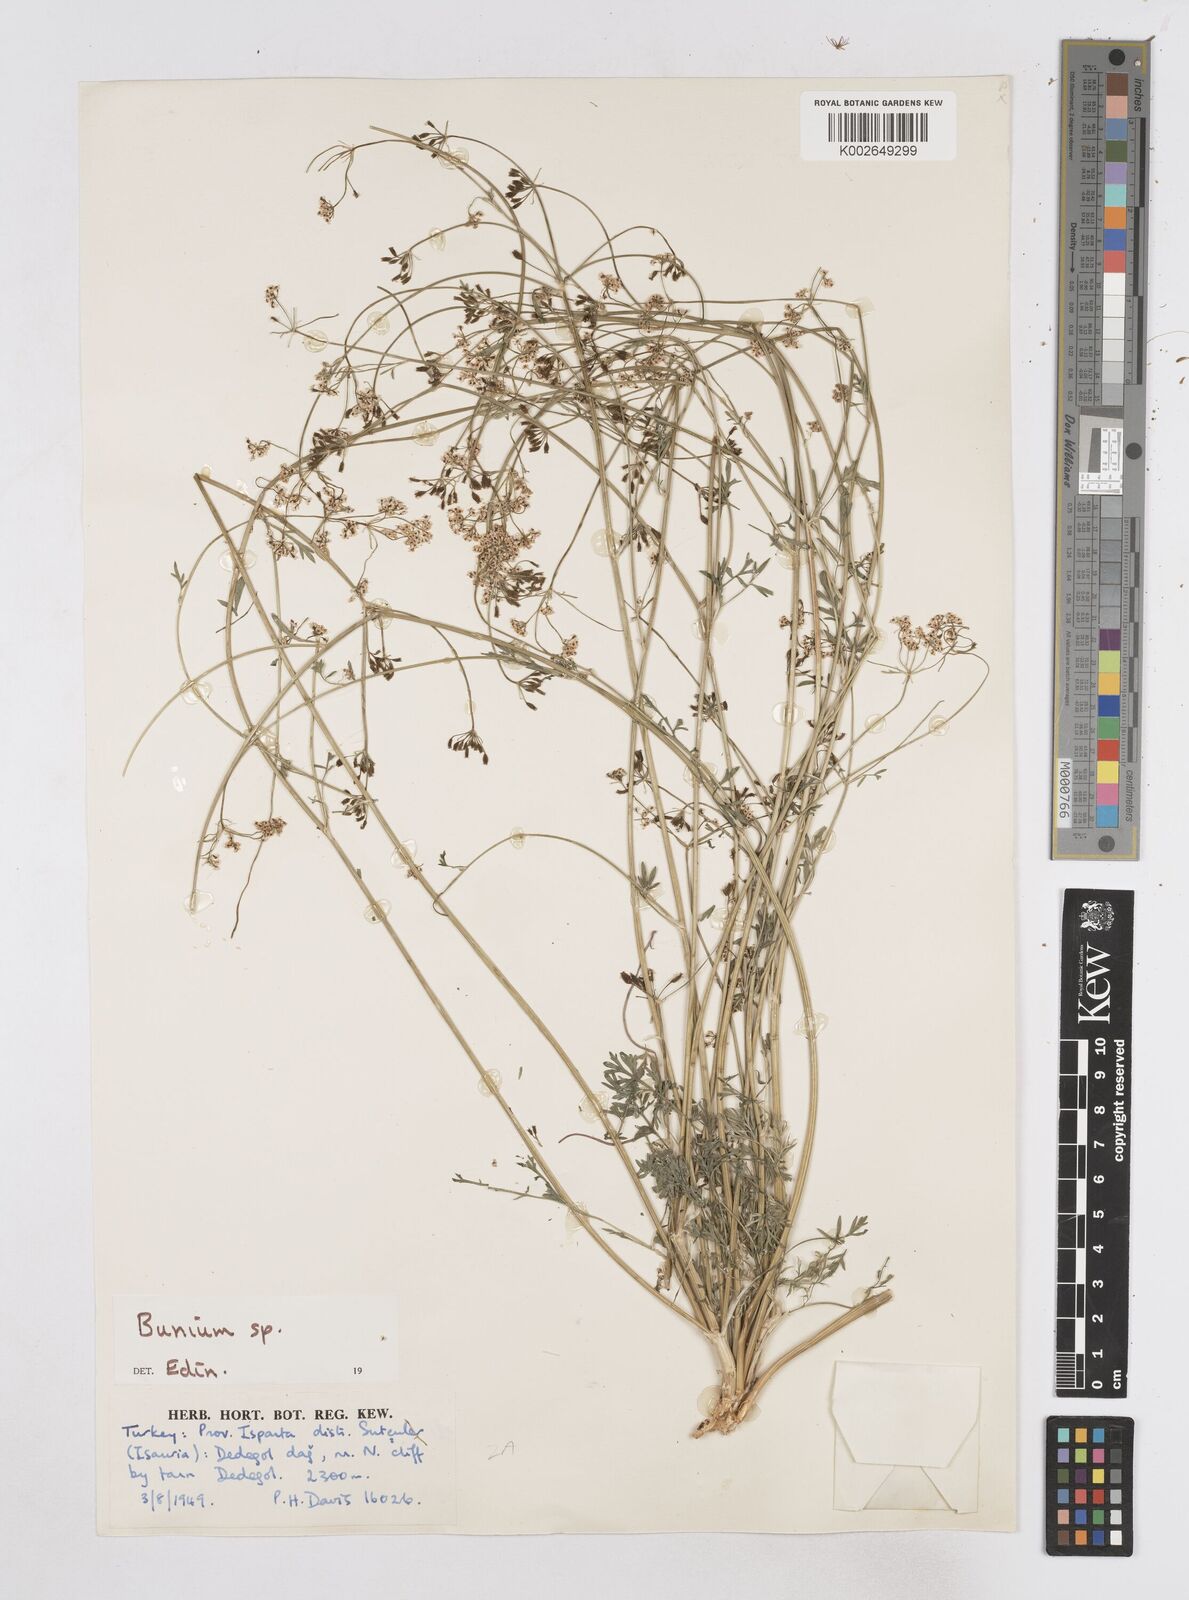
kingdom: Plantae
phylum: Tracheophyta
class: Magnoliopsida
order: Apiales
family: Apiaceae
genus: Bunium
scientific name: Bunium
